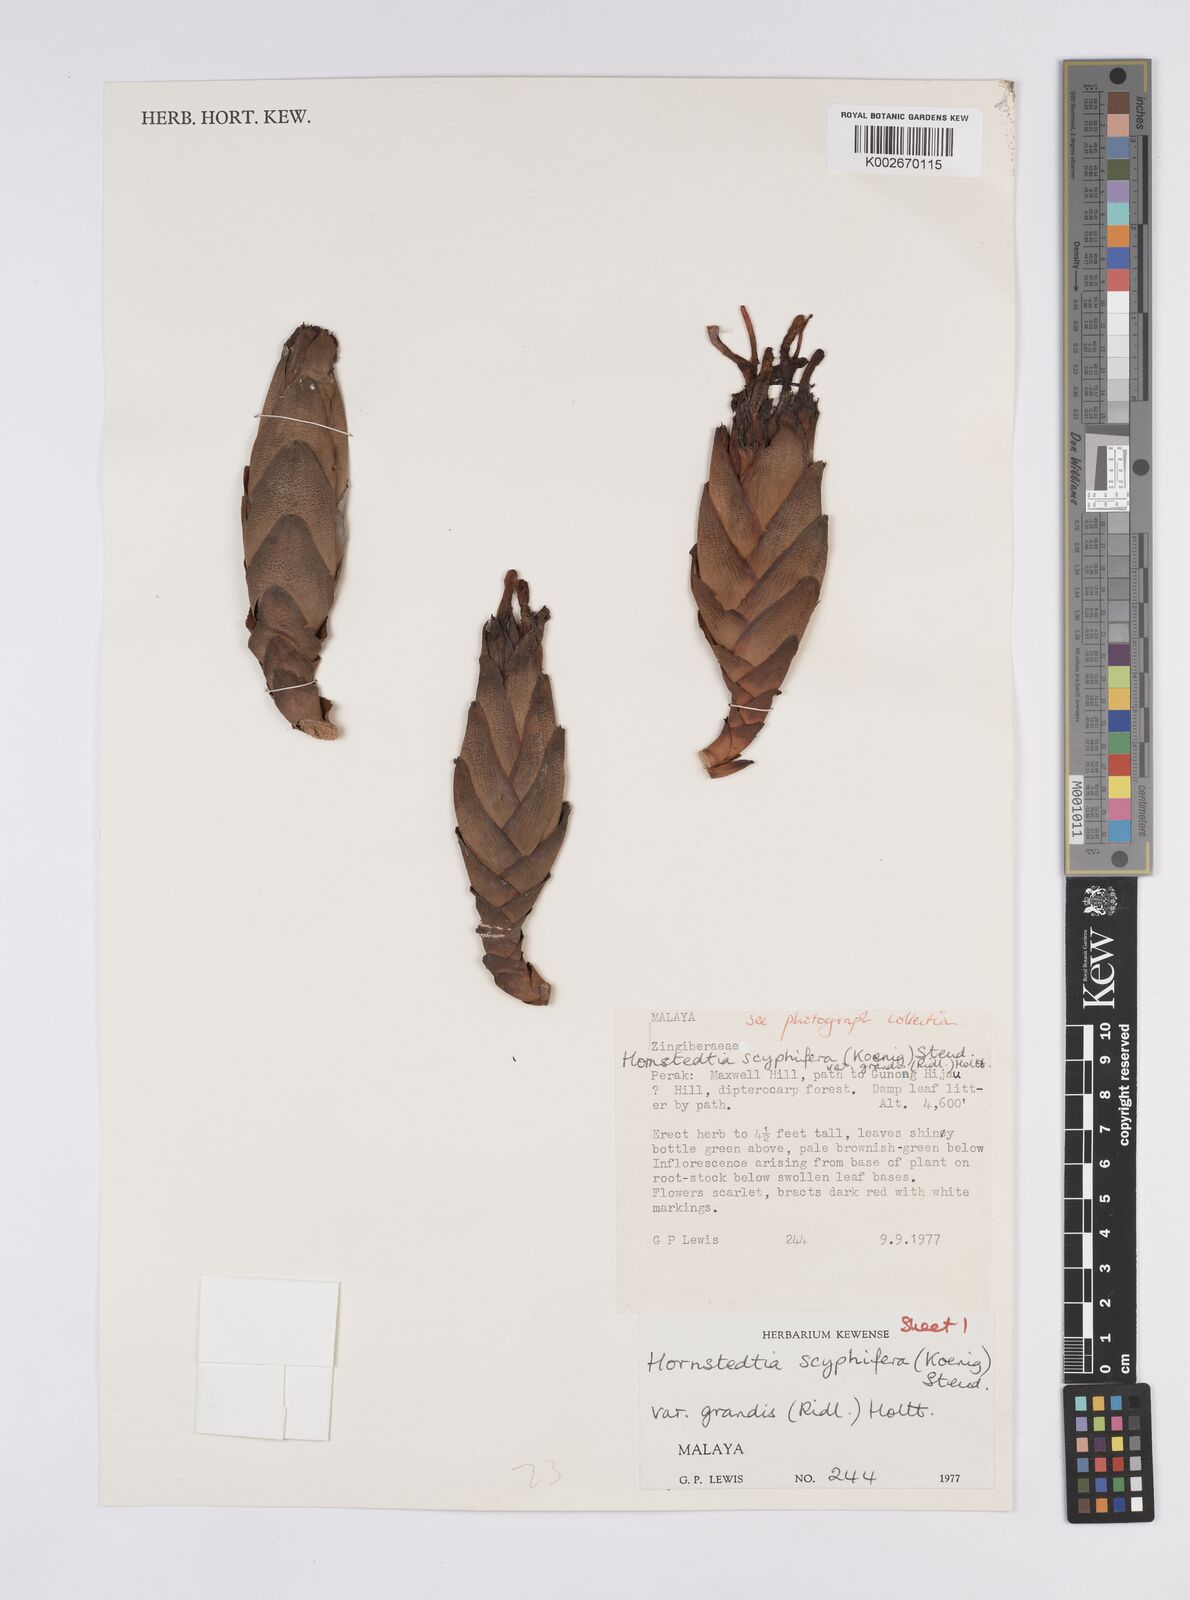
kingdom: Plantae
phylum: Tracheophyta
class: Liliopsida
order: Zingiberales
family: Zingiberaceae
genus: Hornstedtia
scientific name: Hornstedtia scyphifera
